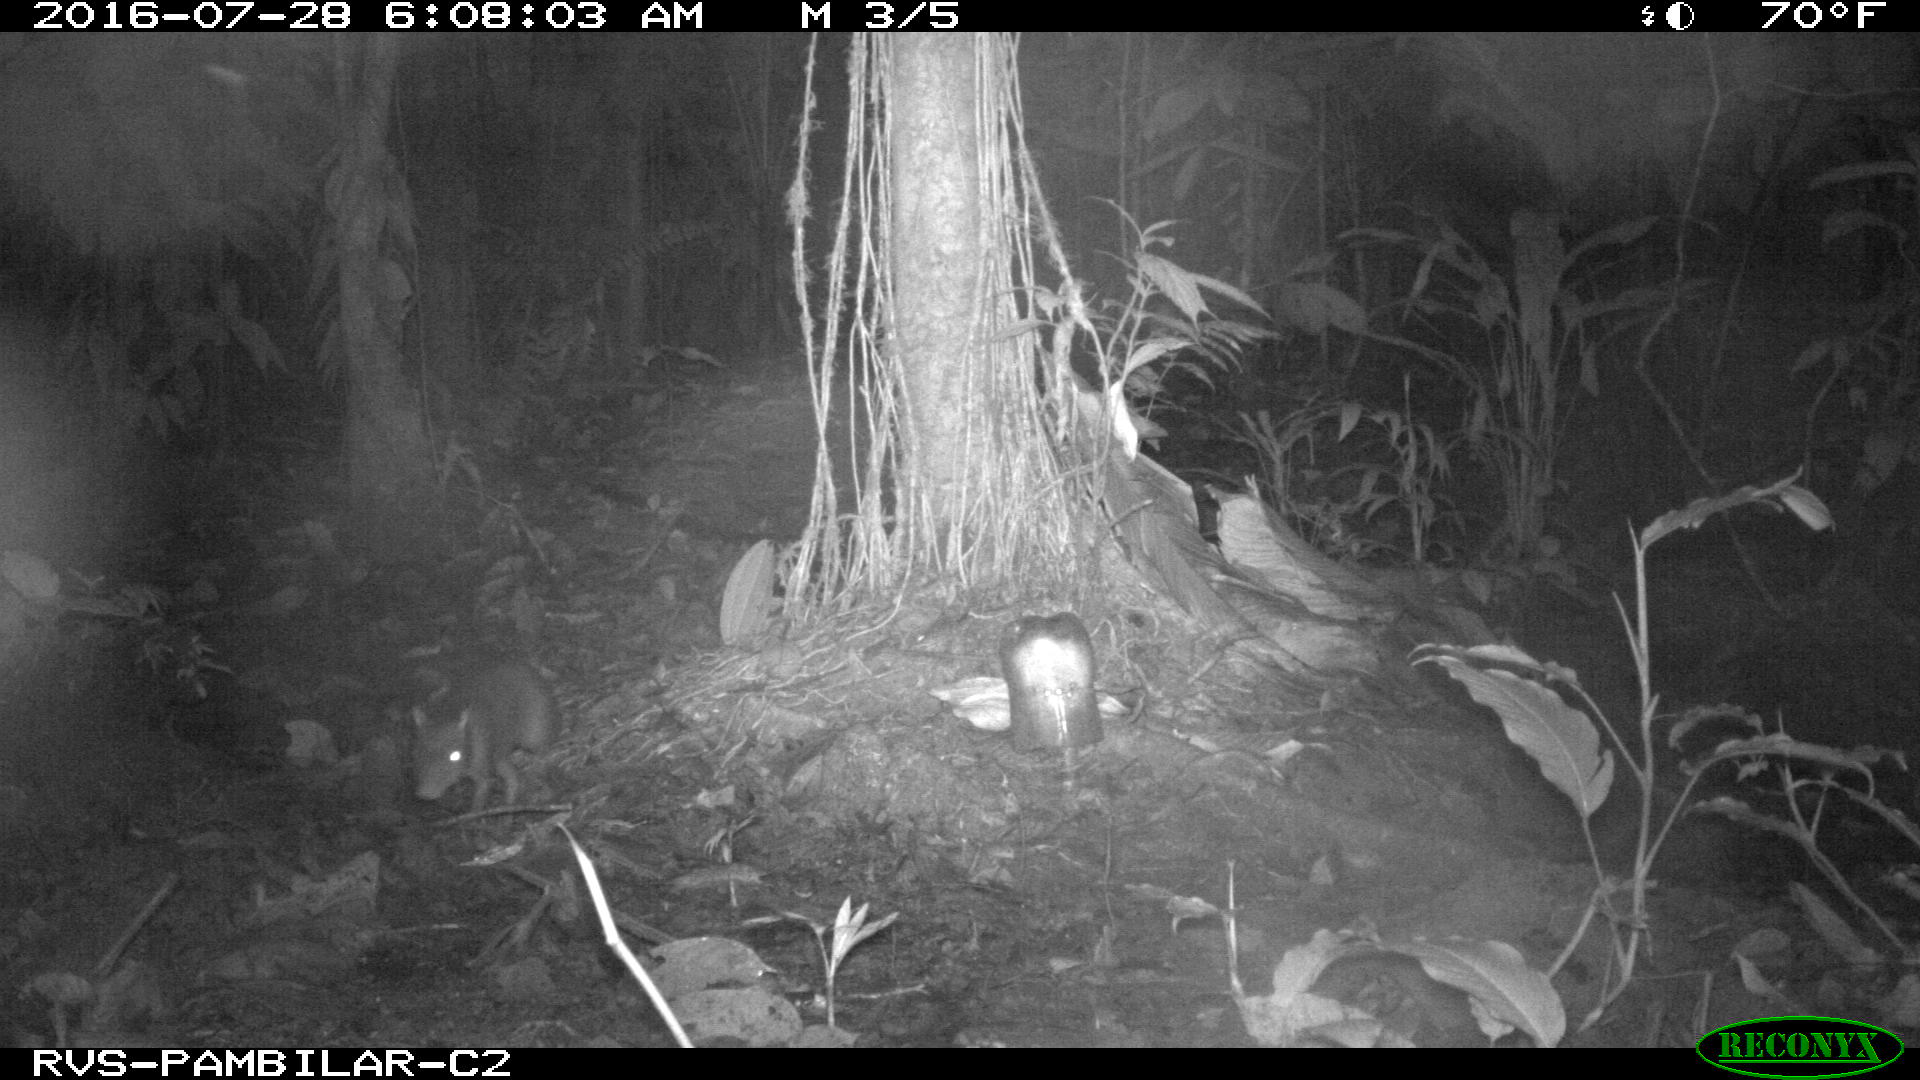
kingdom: Animalia
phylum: Chordata
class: Mammalia
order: Rodentia
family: Dasyproctidae
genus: Dasyprocta
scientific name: Dasyprocta punctata
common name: Central american agouti
